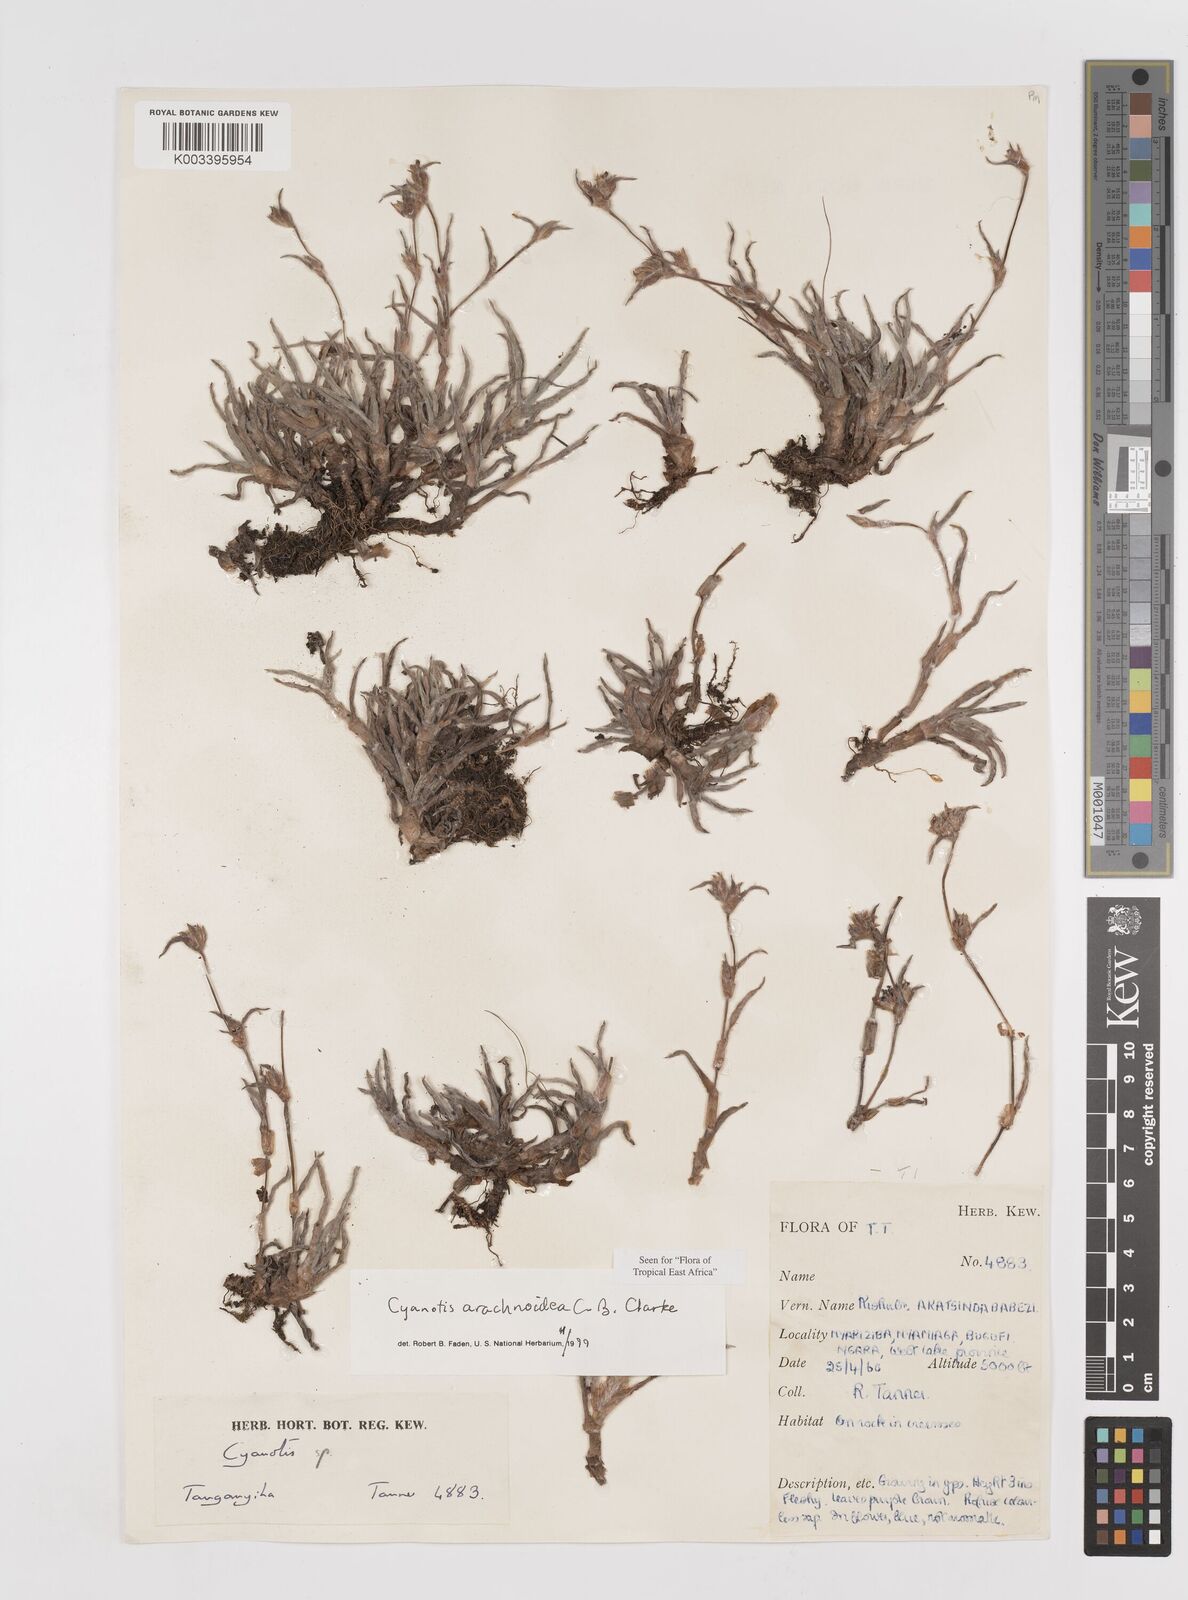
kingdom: Plantae
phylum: Tracheophyta
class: Liliopsida
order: Commelinales
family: Commelinaceae
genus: Cyanotis
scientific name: Cyanotis arachnoidea
